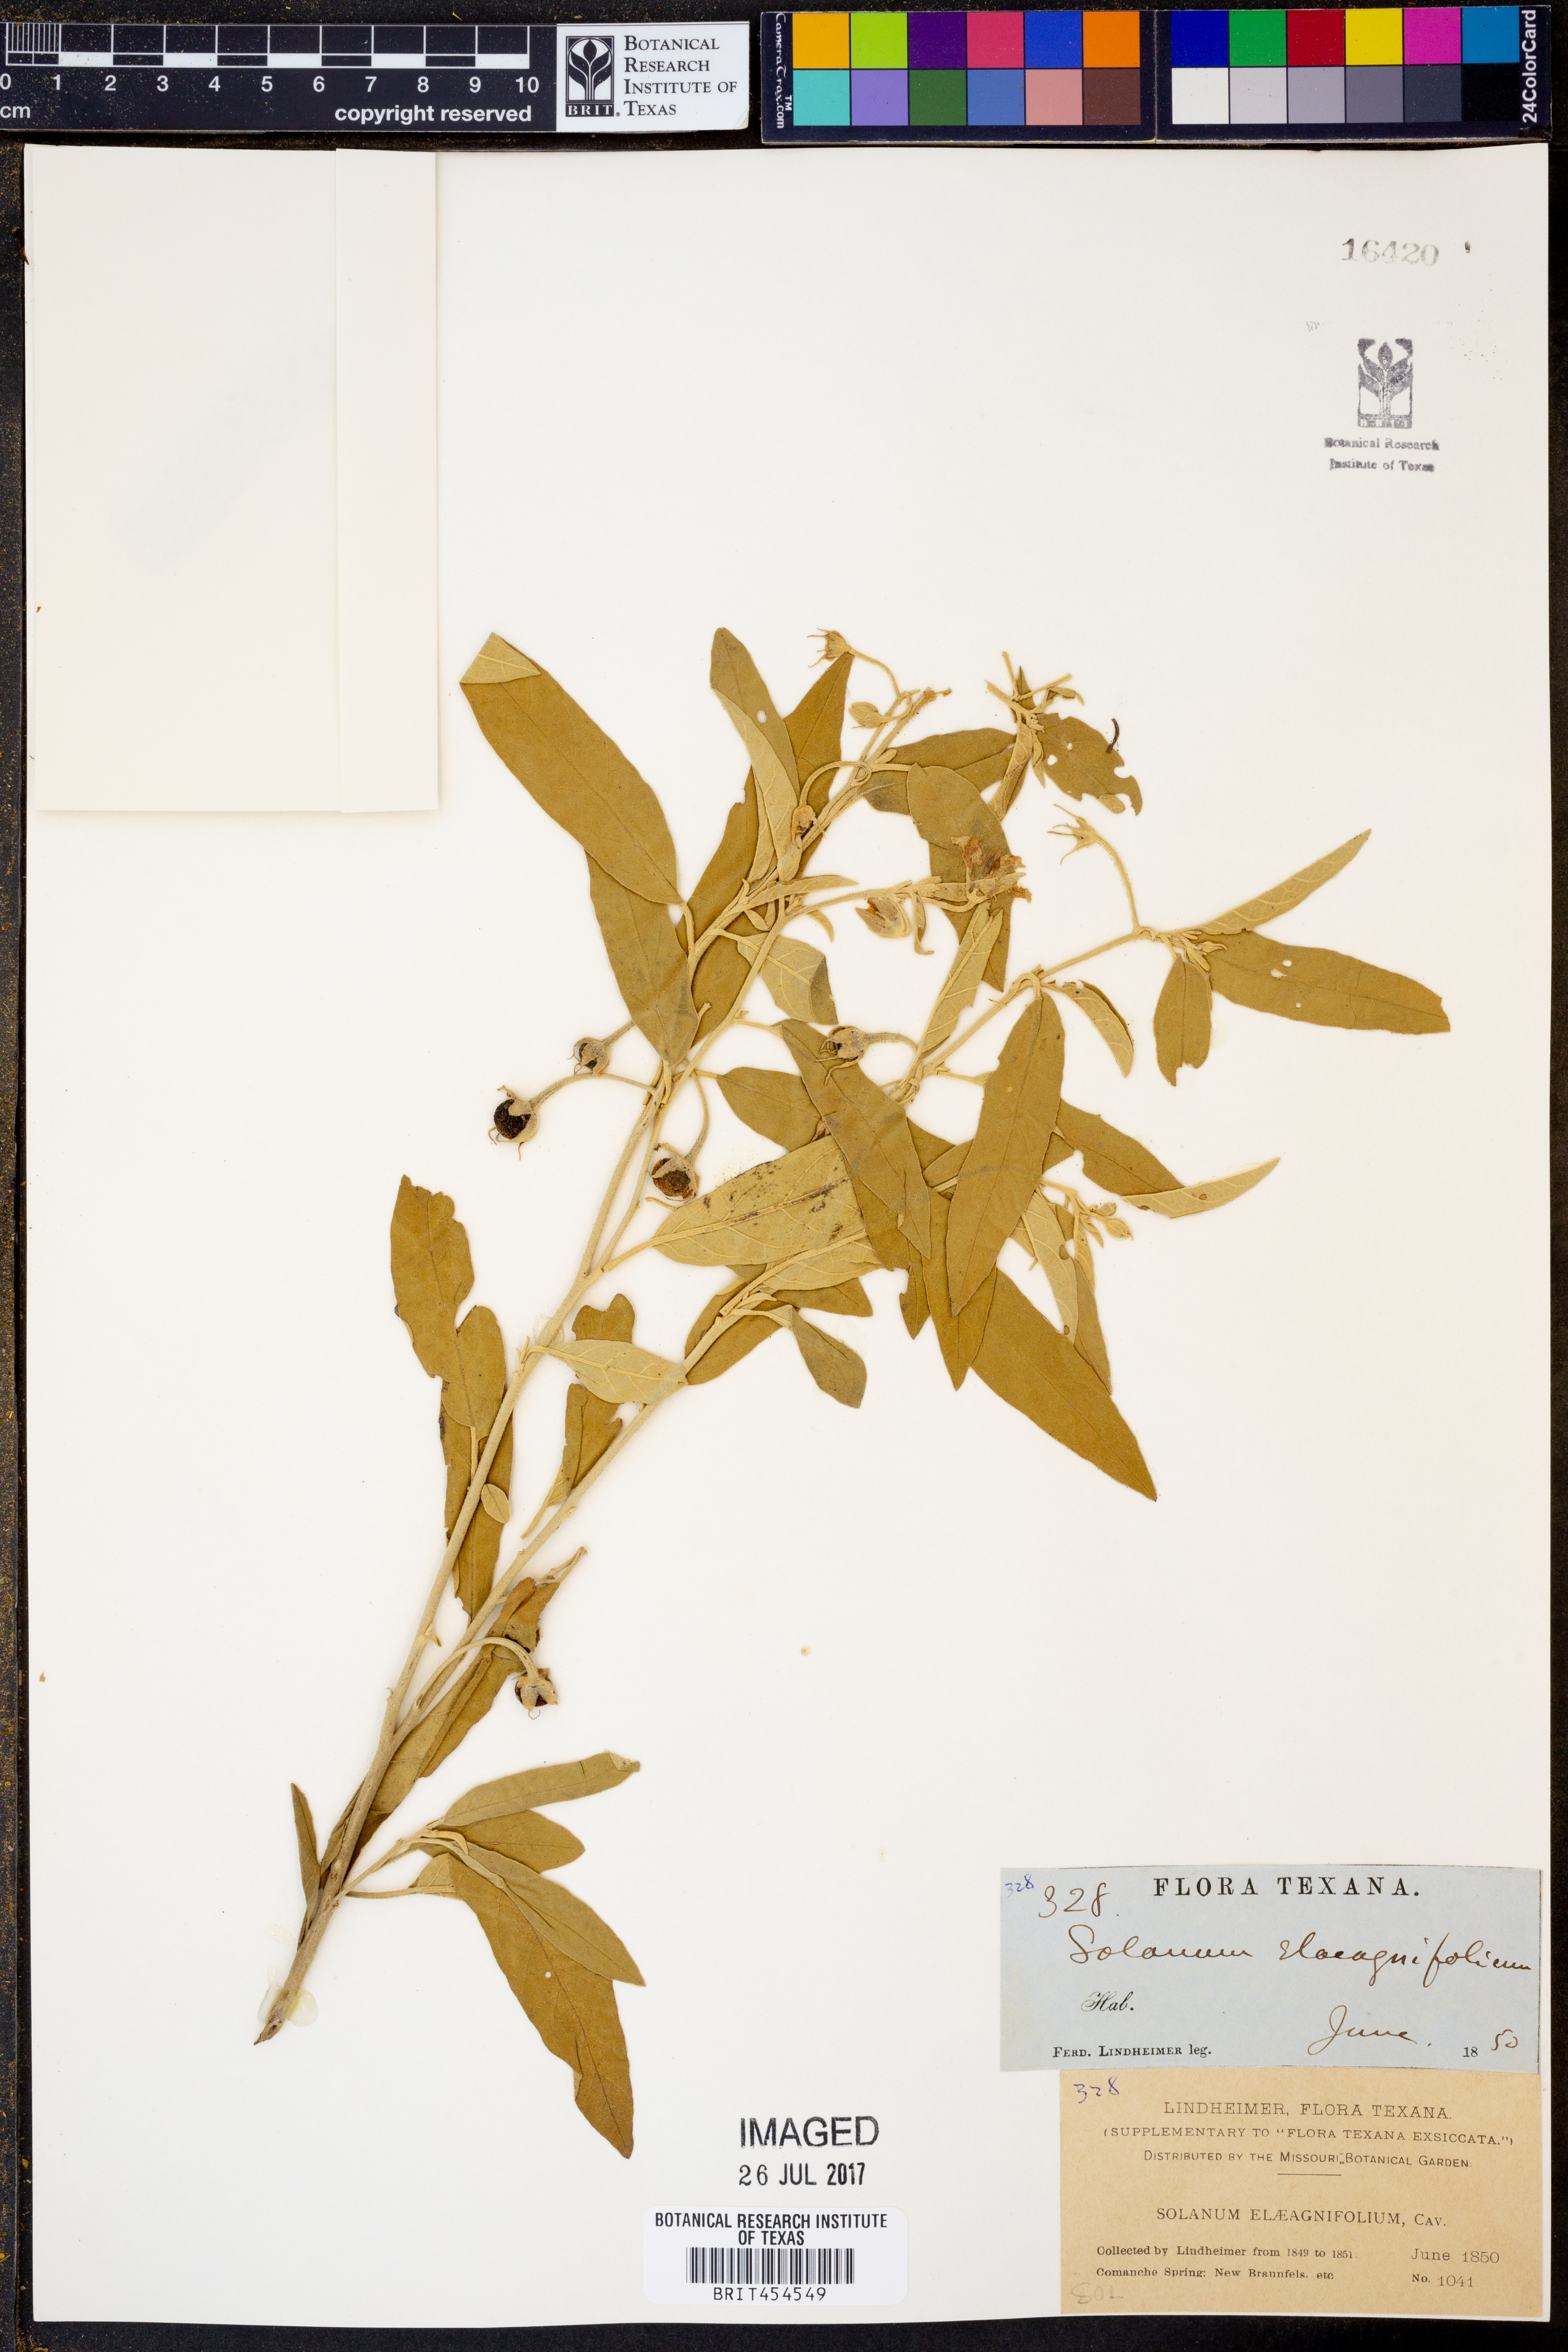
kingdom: Plantae
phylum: Tracheophyta
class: Magnoliopsida
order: Solanales
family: Solanaceae
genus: Solanum
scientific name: Solanum elaeagnifolium
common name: Silverleaf nightshade
